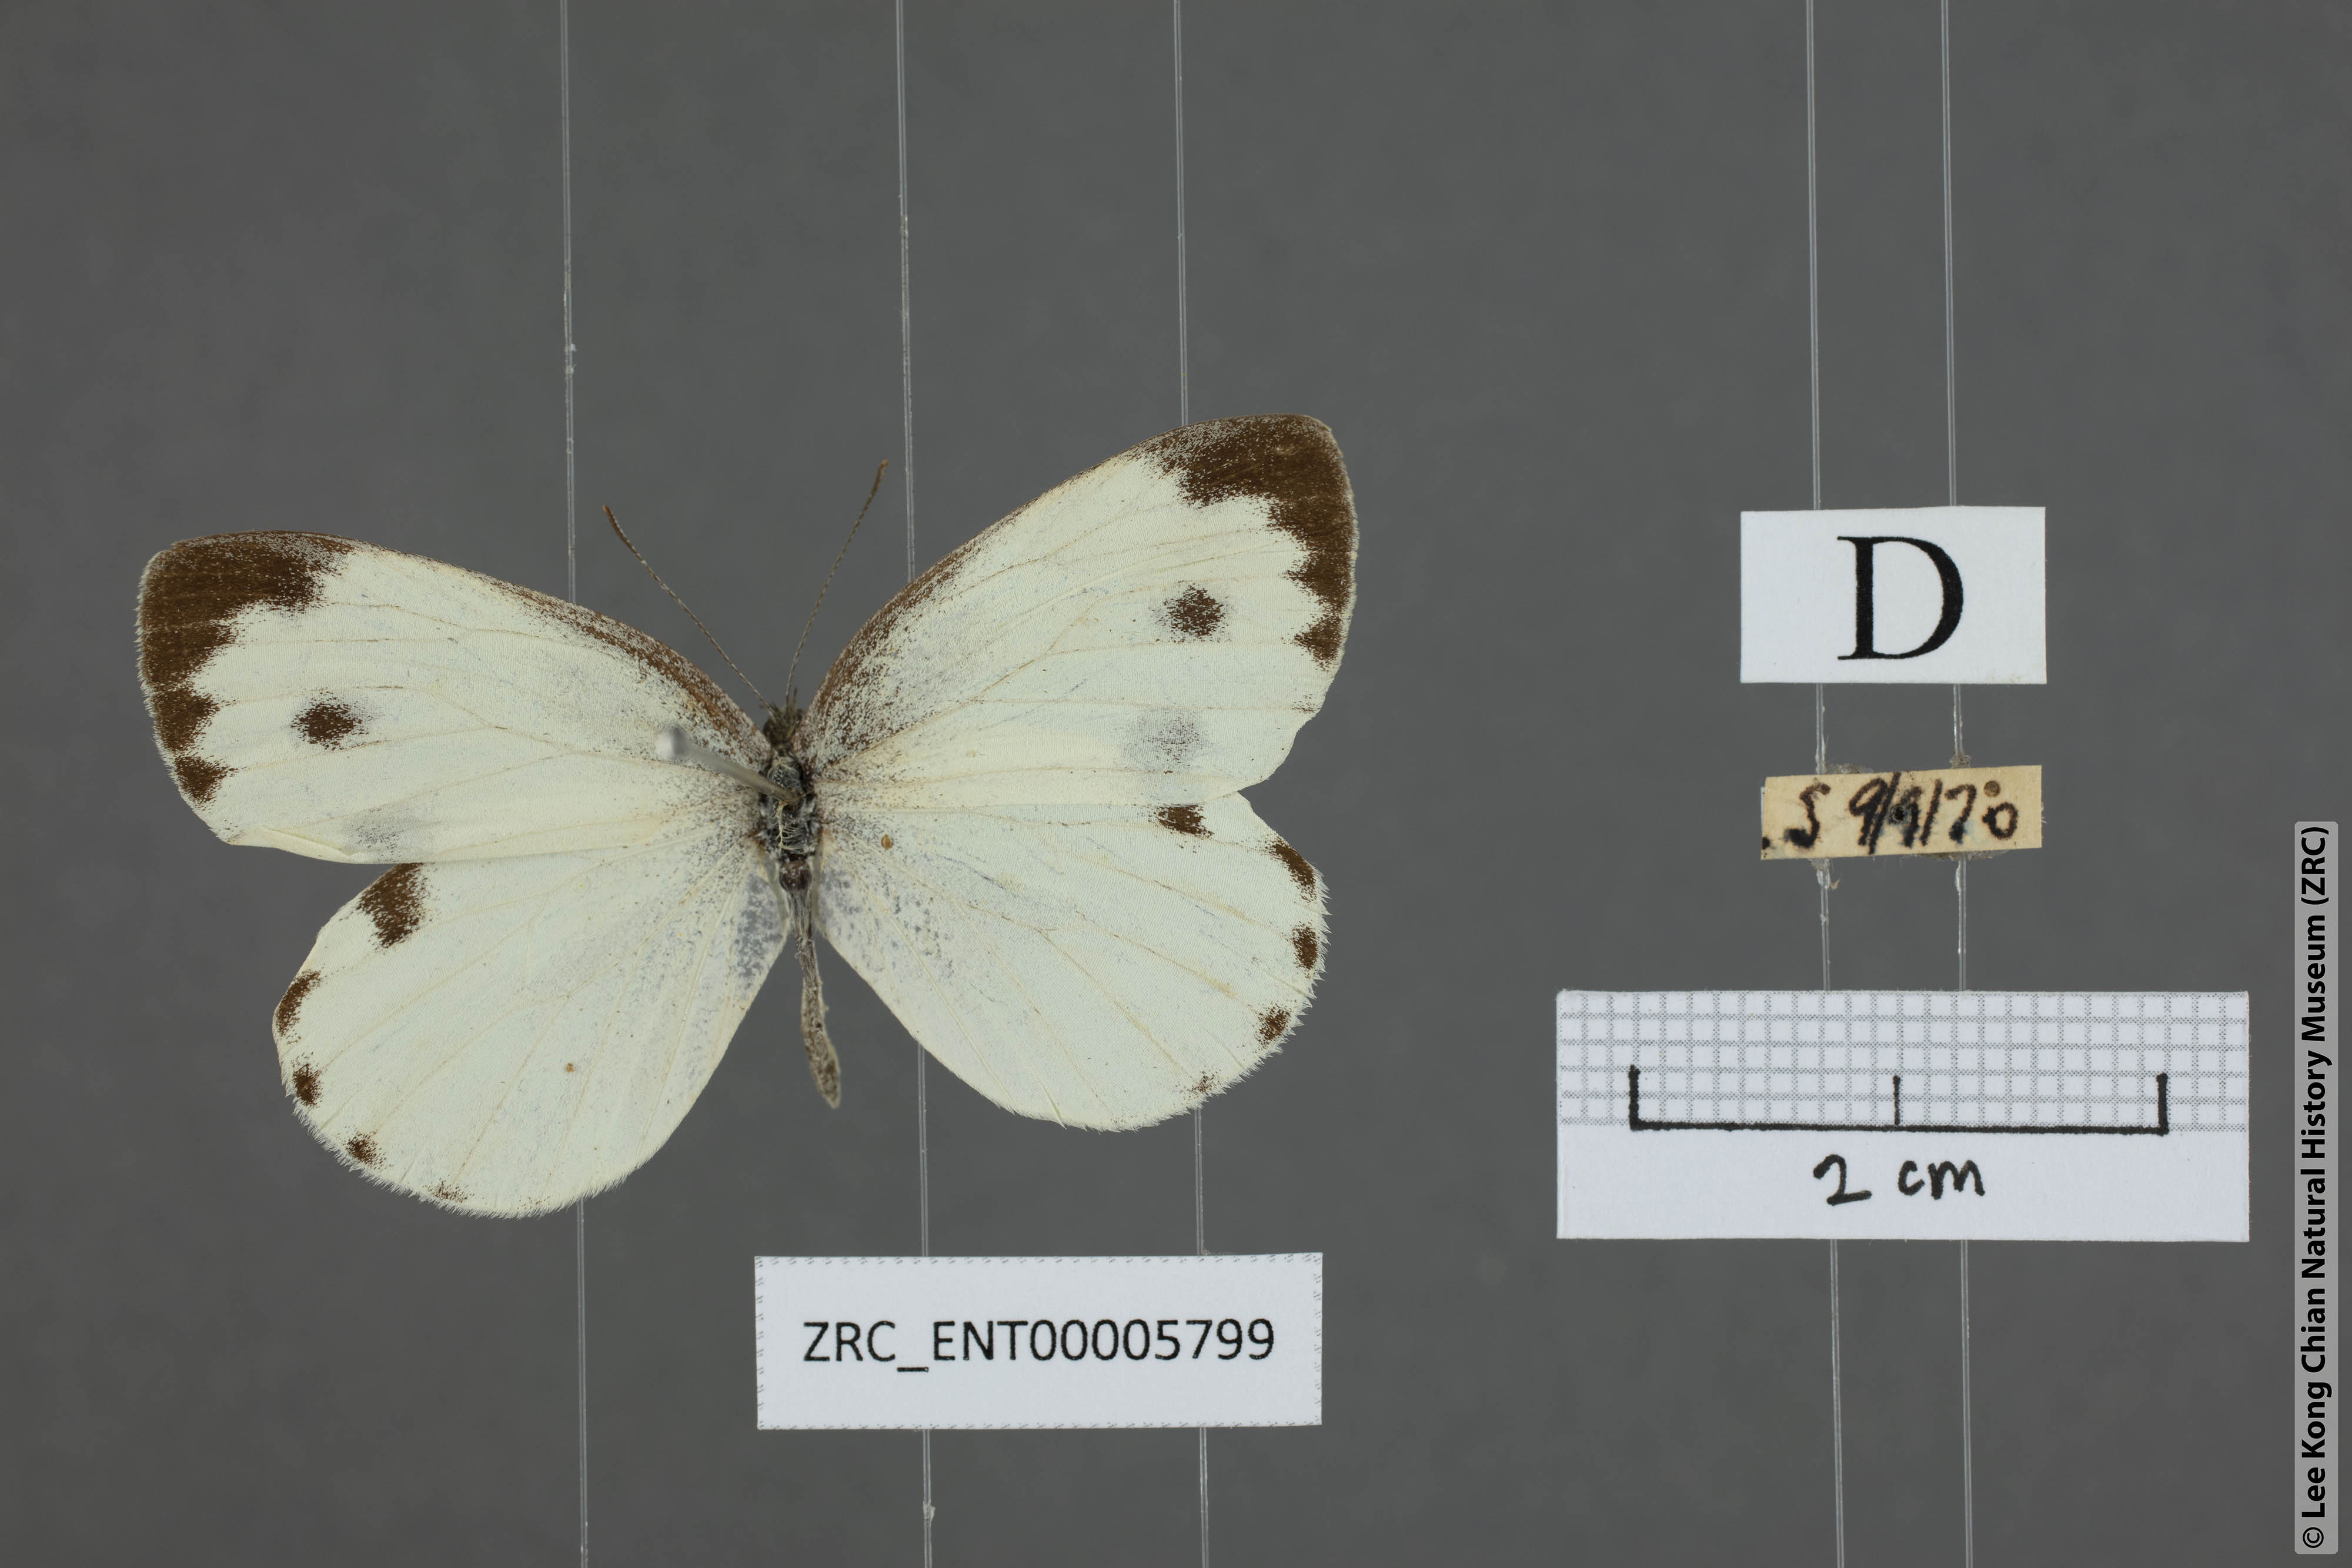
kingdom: Animalia
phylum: Arthropoda
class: Insecta
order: Lepidoptera
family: Pieridae
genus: Pieris
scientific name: Pieris canidia
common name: Indian cabbage white
